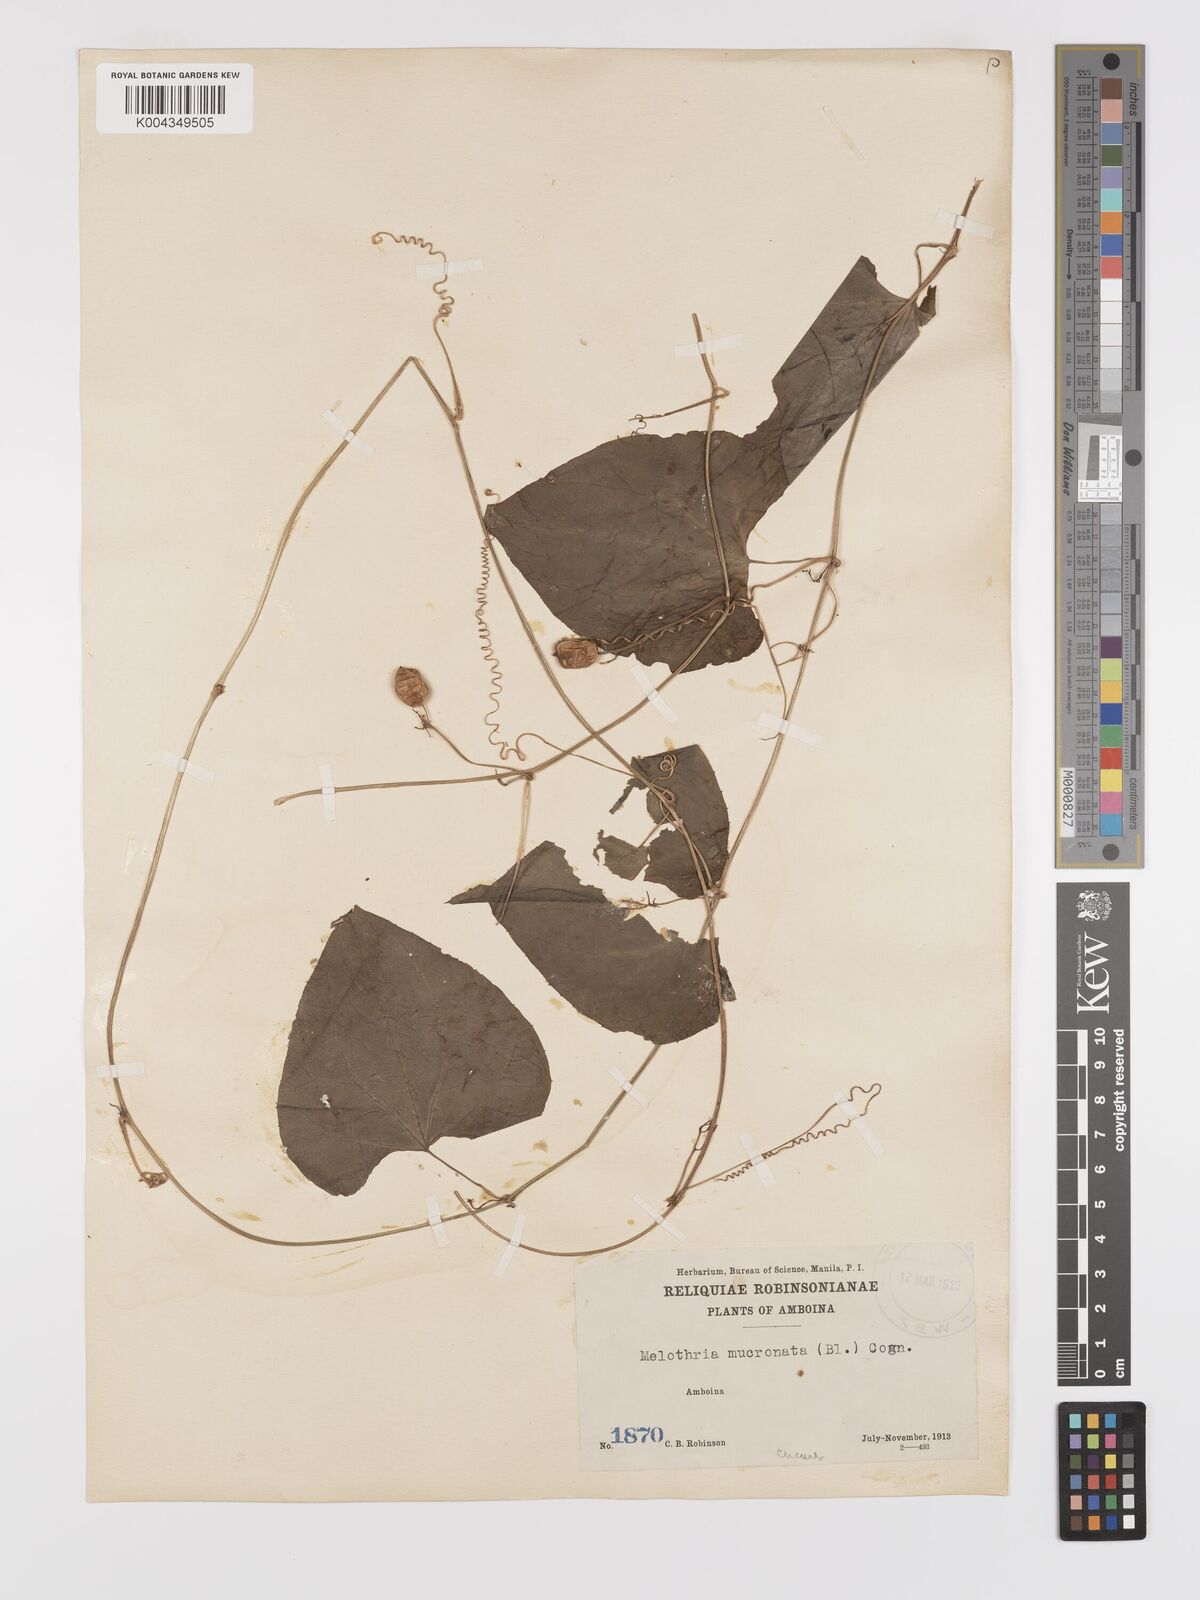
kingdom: Plantae
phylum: Tracheophyta
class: Magnoliopsida
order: Cucurbitales
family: Cucurbitaceae
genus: Zehneria
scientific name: Zehneria mucronata
